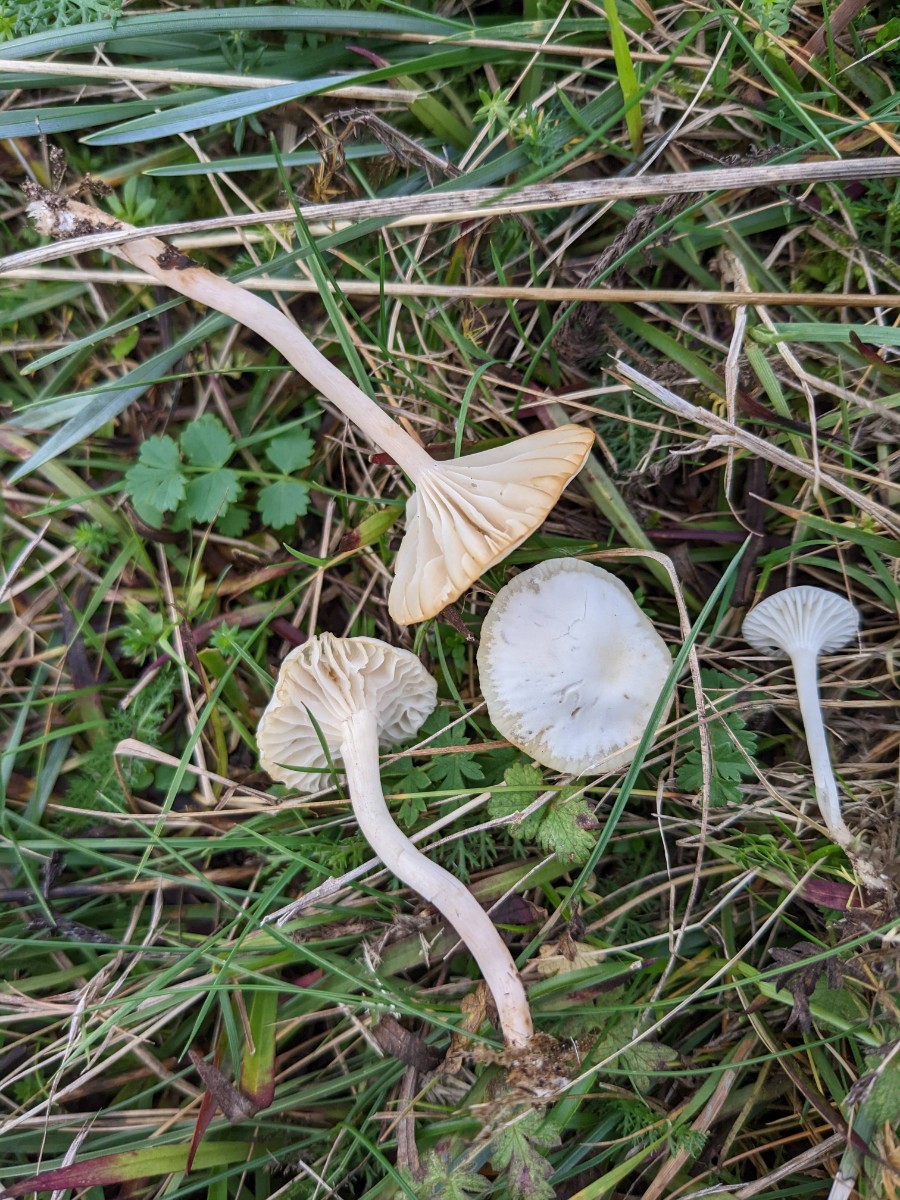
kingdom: Fungi
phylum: Basidiomycota
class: Agaricomycetes
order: Agaricales
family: Hygrophoraceae
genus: Cuphophyllus
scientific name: Cuphophyllus virgineus
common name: snehvid vokshat
